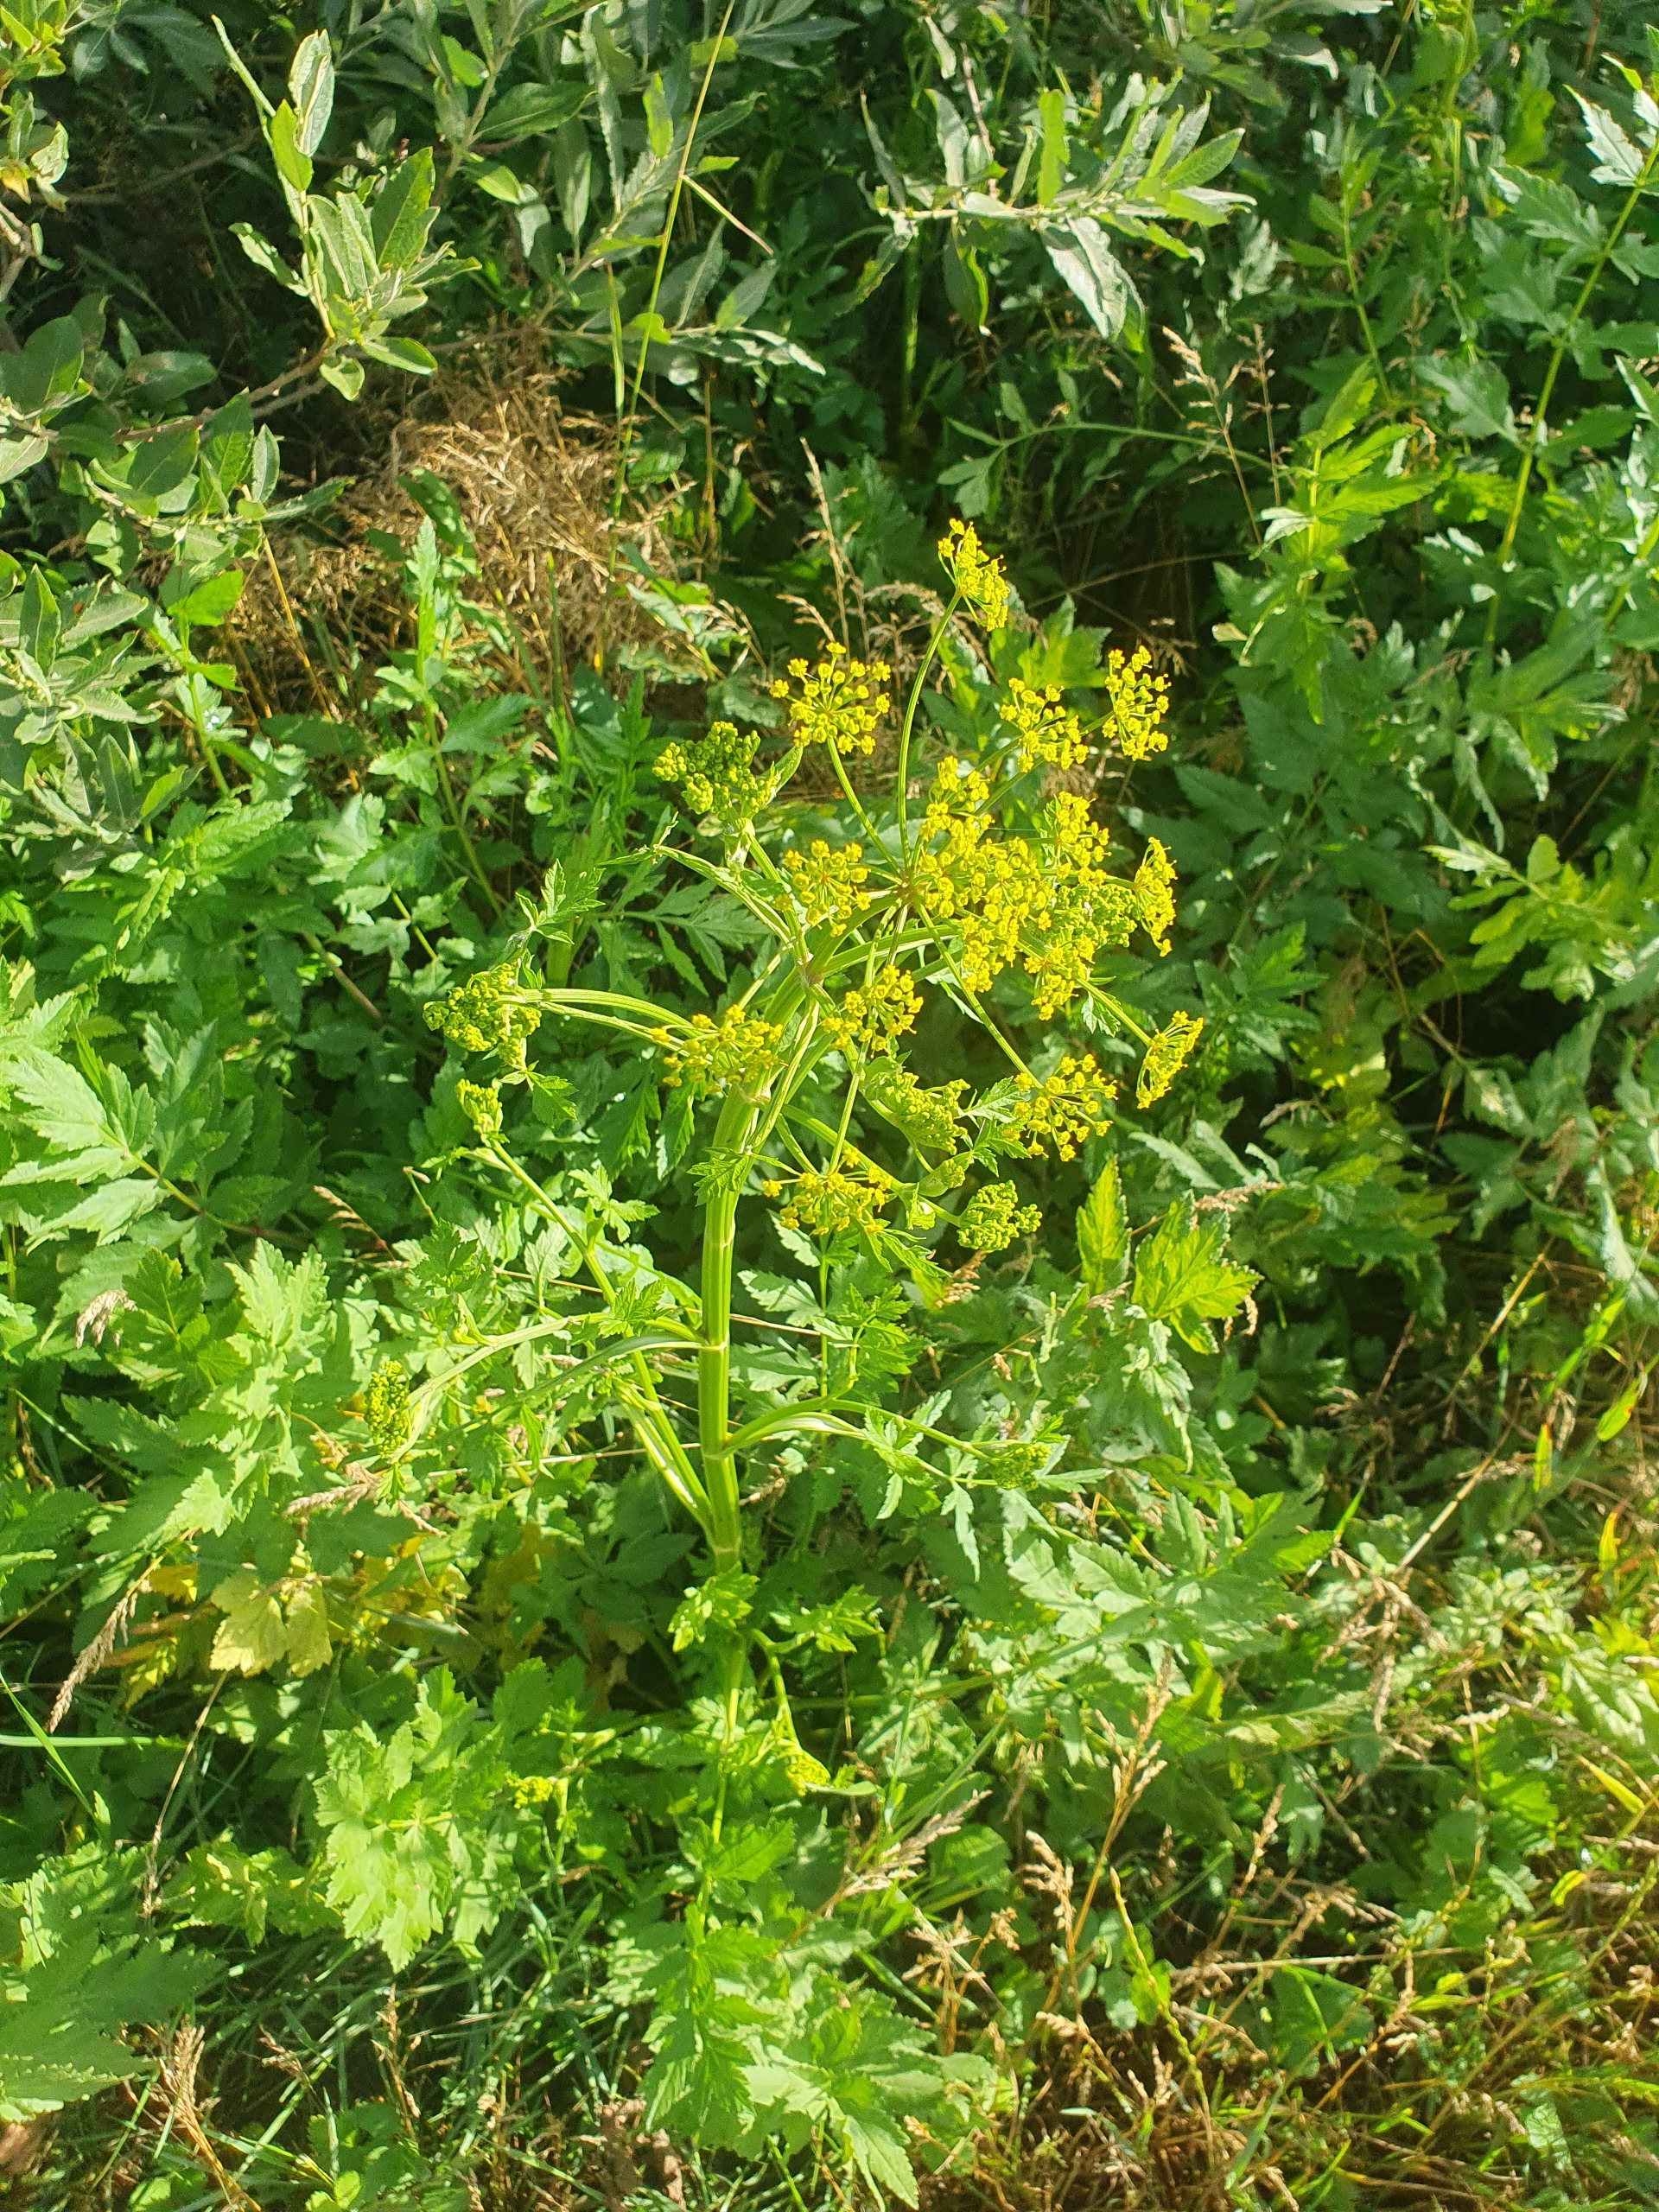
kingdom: Plantae
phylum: Tracheophyta
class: Magnoliopsida
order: Apiales
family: Apiaceae
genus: Pastinaca
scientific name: Pastinaca sativa
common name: Pastinak
